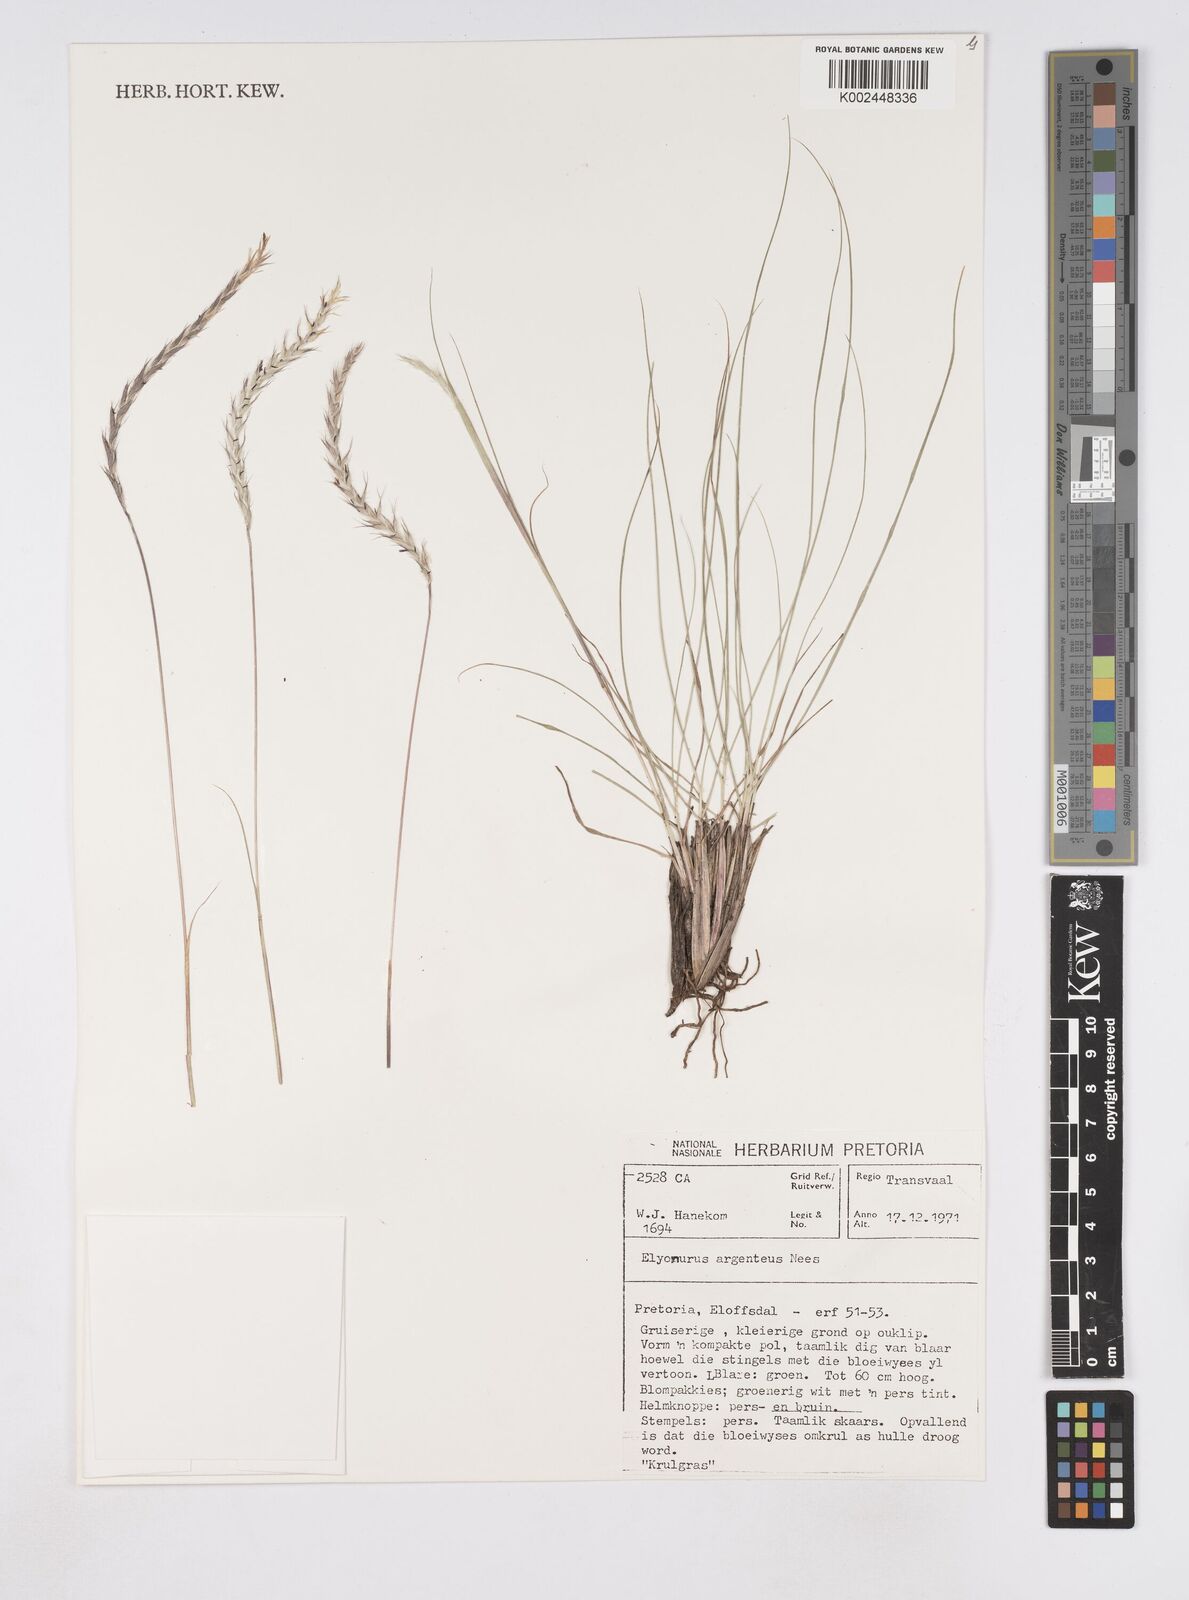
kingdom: Plantae
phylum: Tracheophyta
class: Liliopsida
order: Poales
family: Poaceae
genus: Elionurus
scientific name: Elionurus muticus
